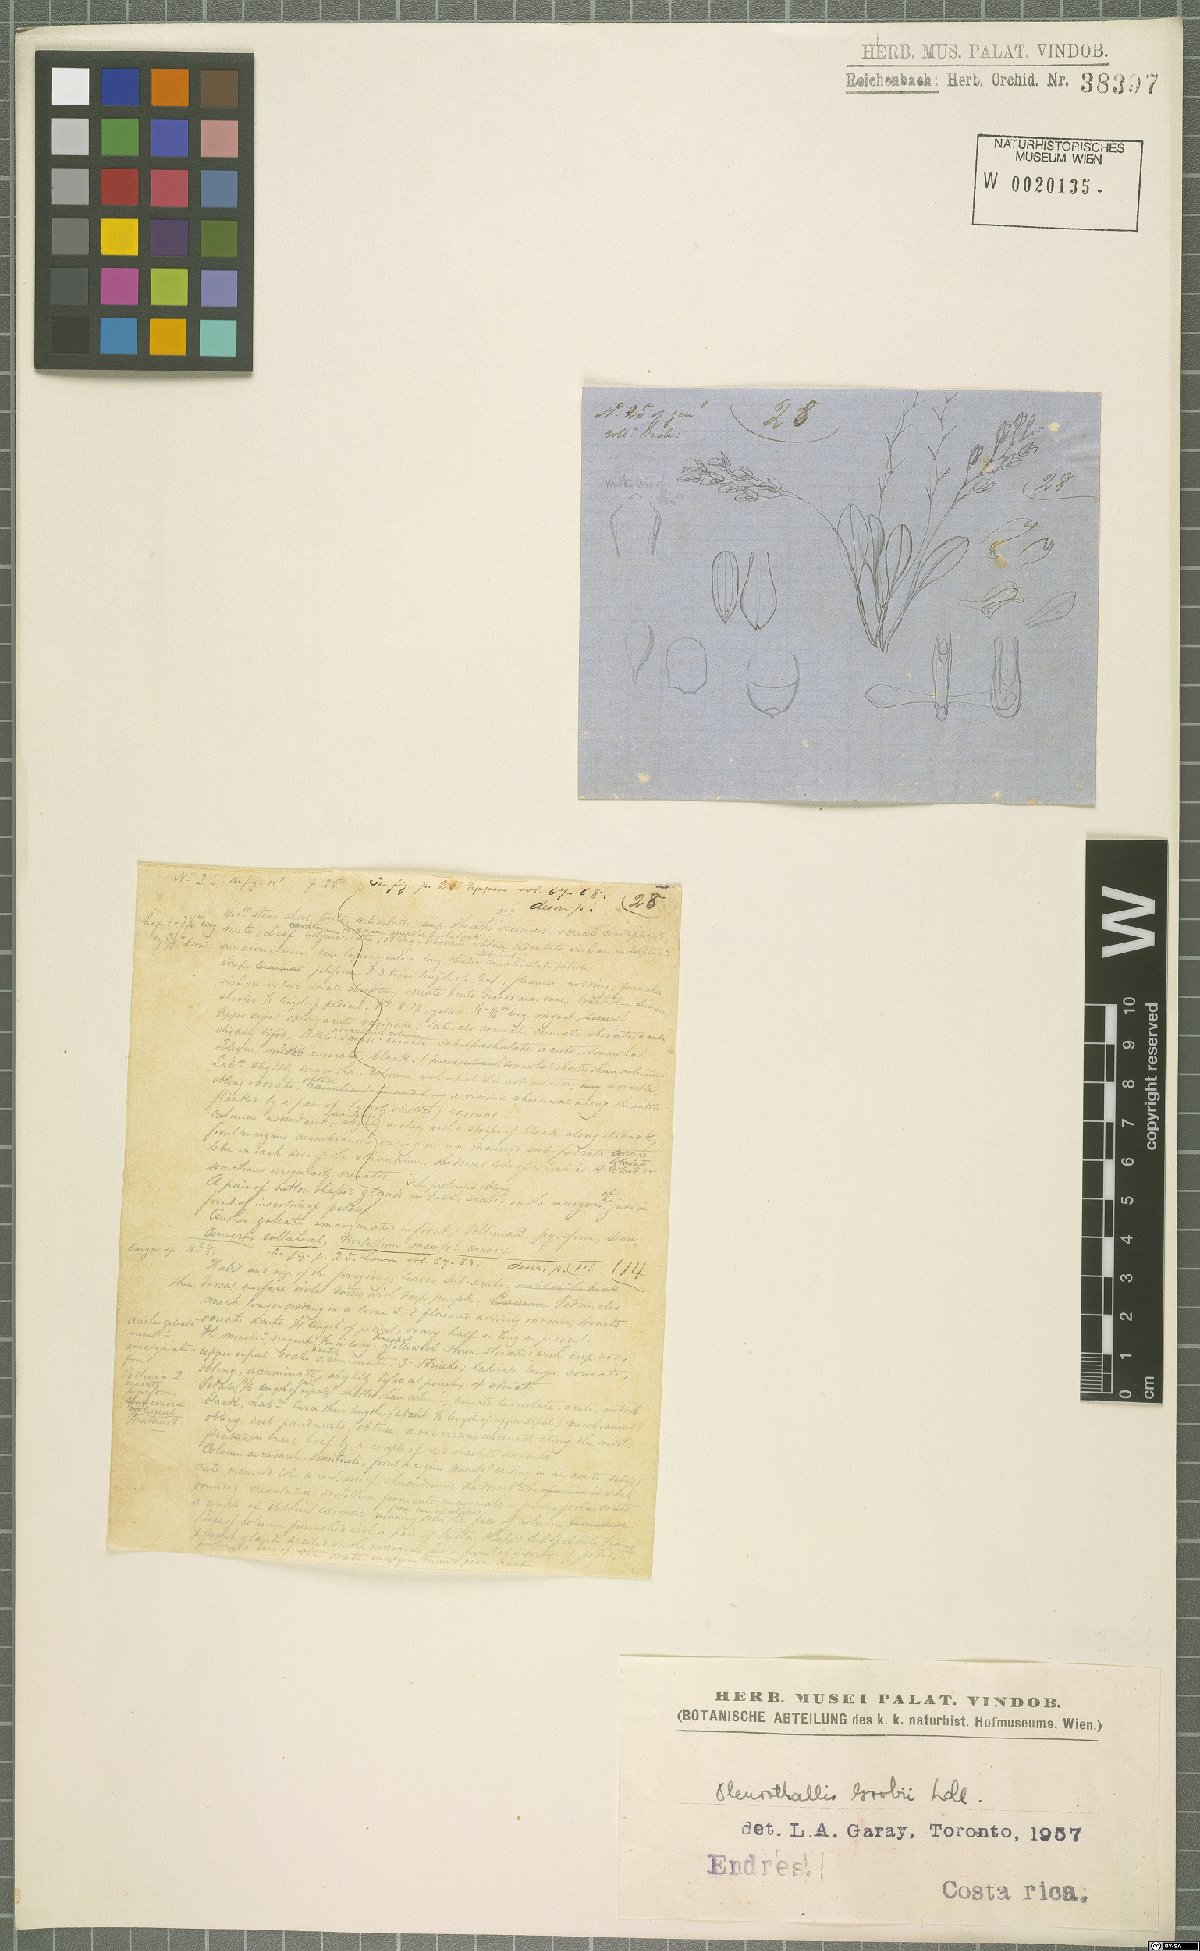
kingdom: Plantae
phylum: Tracheophyta
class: Liliopsida
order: Asparagales
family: Orchidaceae
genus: Specklinia
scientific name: Specklinia grobyi
